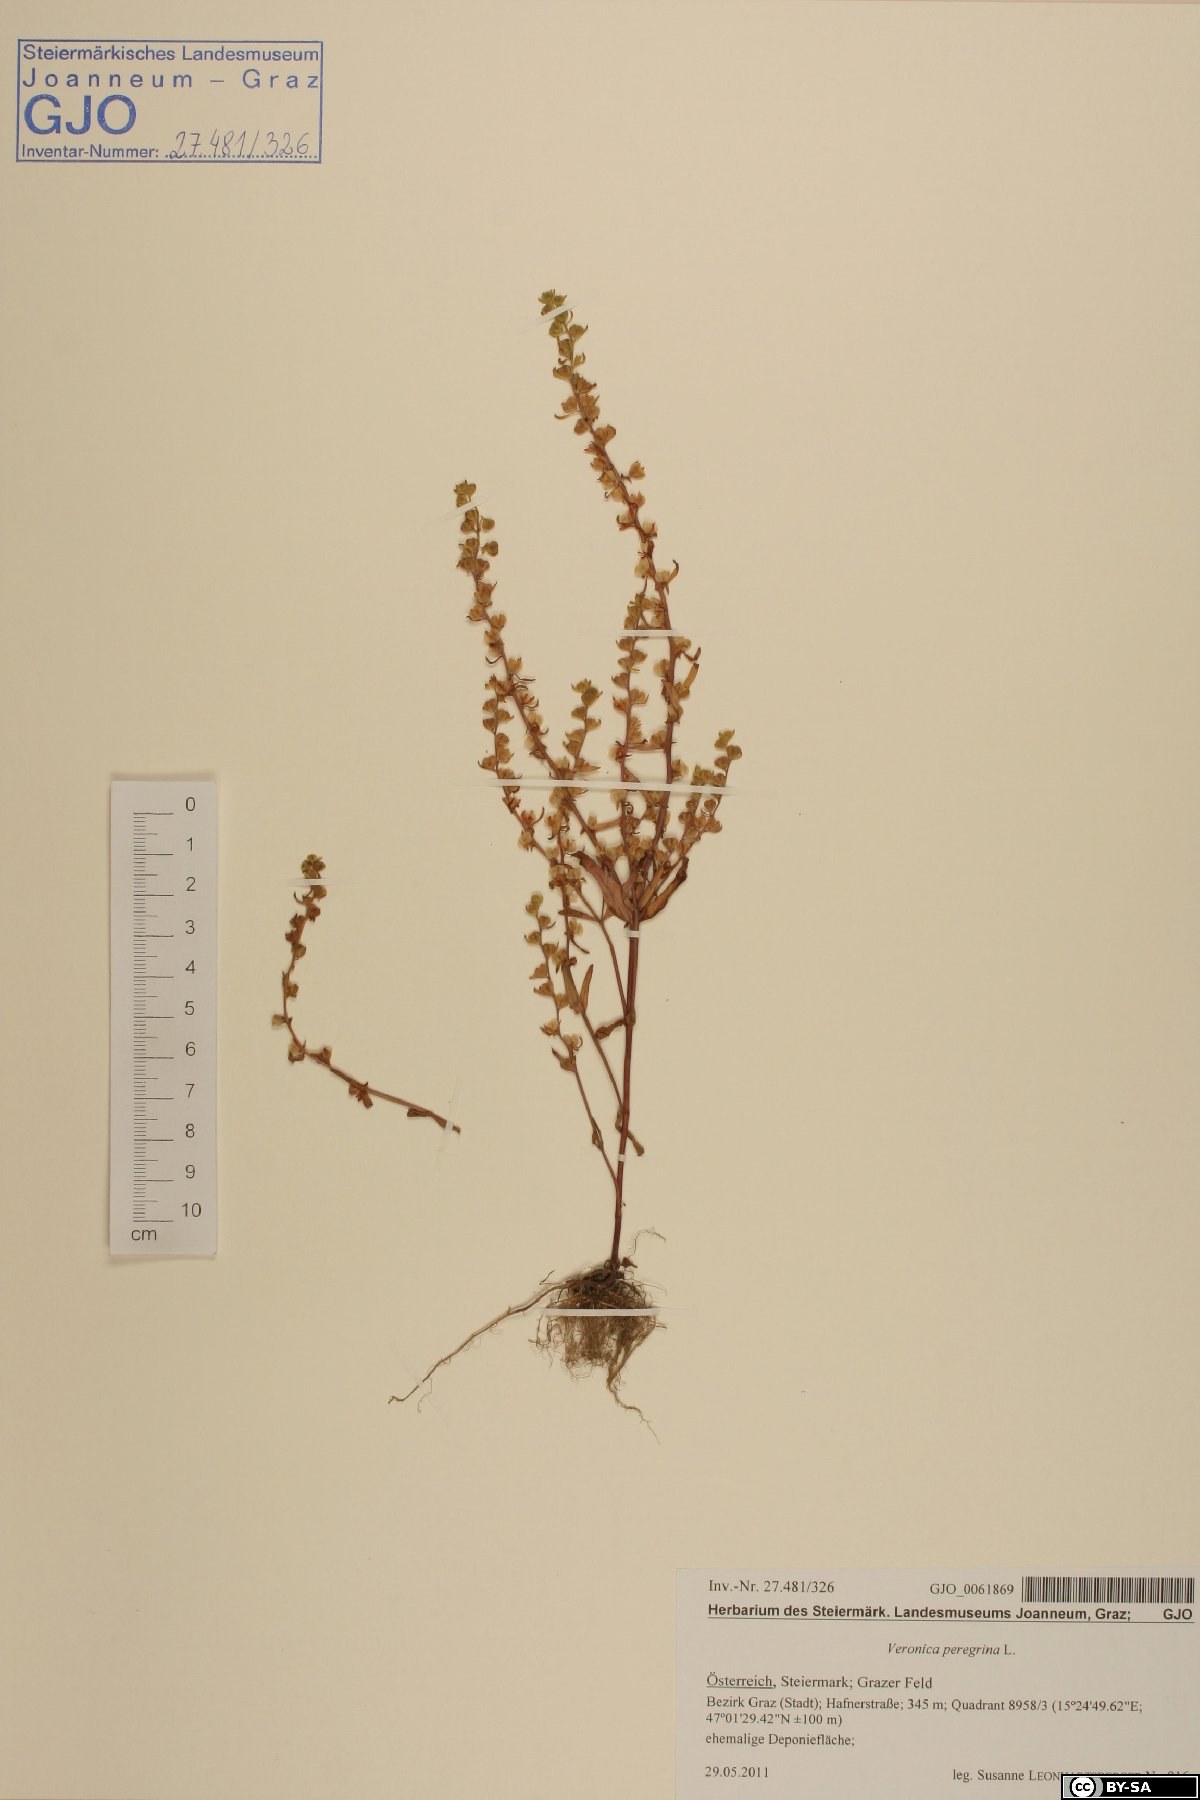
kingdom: Plantae
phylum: Tracheophyta
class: Magnoliopsida
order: Lamiales
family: Plantaginaceae
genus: Veronica
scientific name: Veronica peregrina
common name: Neckweed
